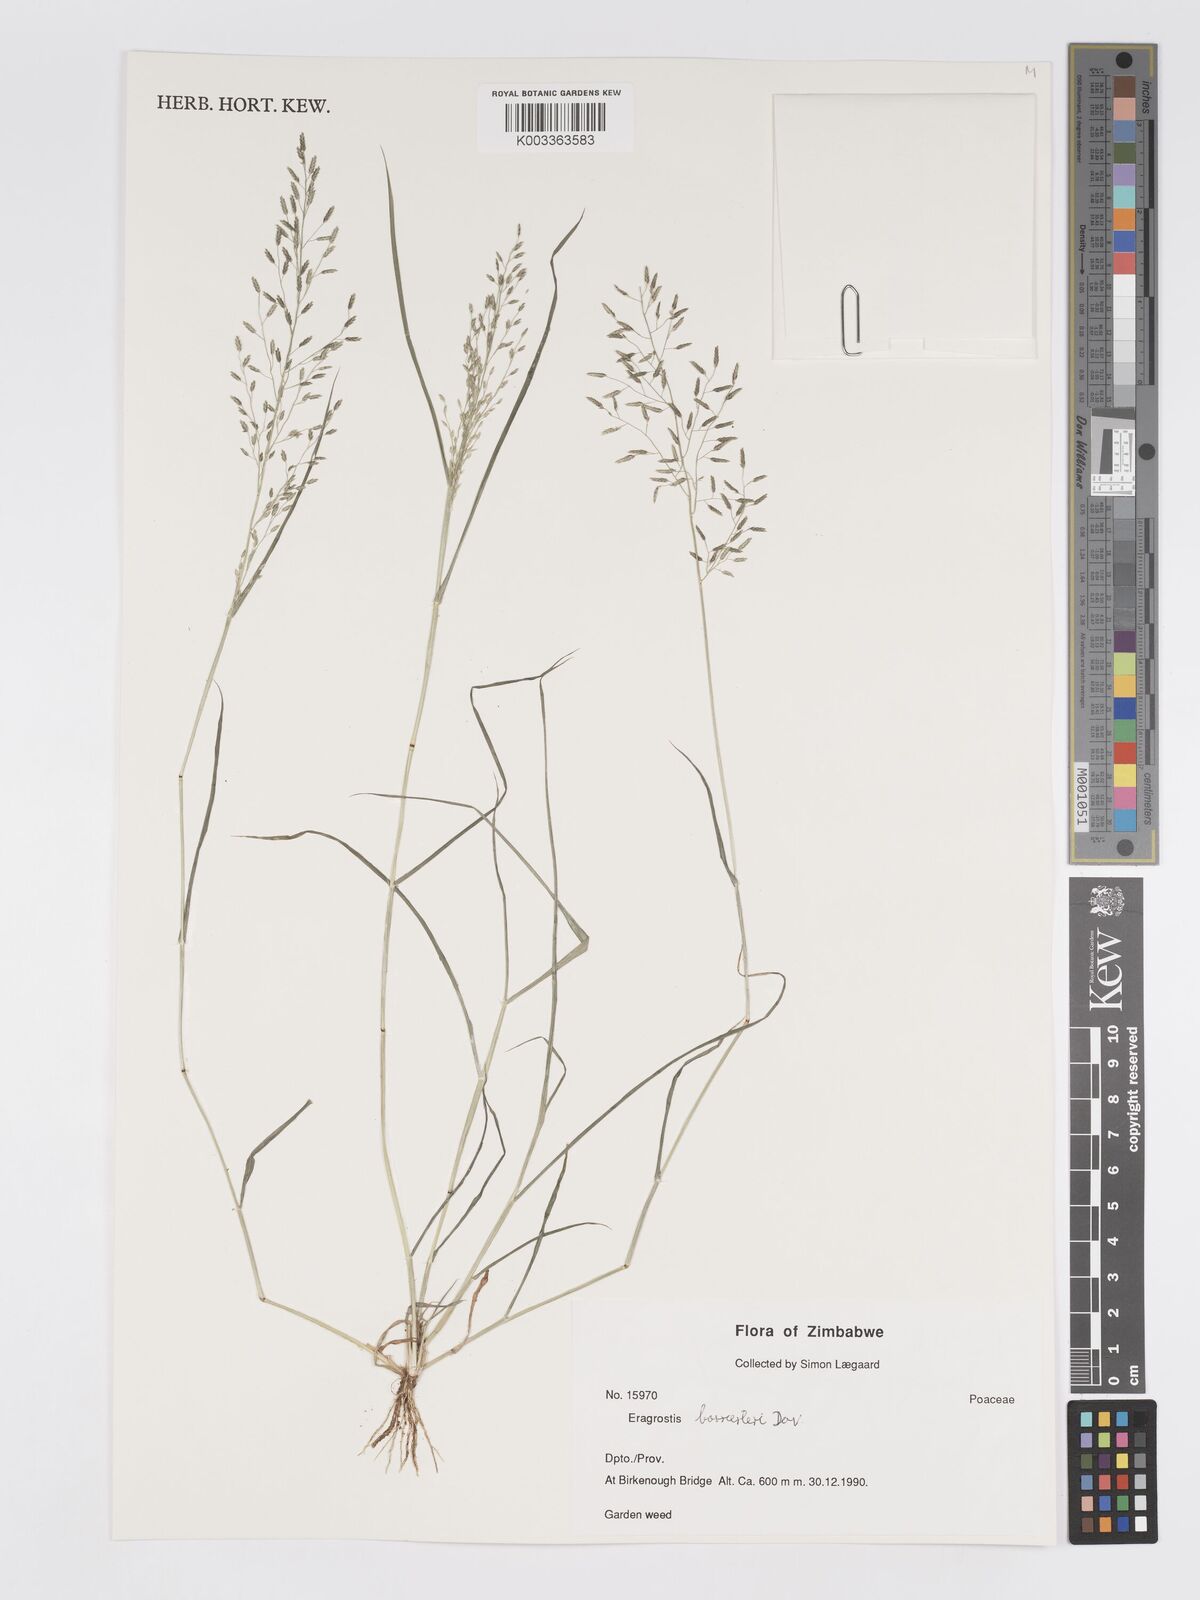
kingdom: Plantae
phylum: Tracheophyta
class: Liliopsida
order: Poales
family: Poaceae
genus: Eragrostis
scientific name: Eragrostis barrelieri
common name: Mediterranean lovegrass
